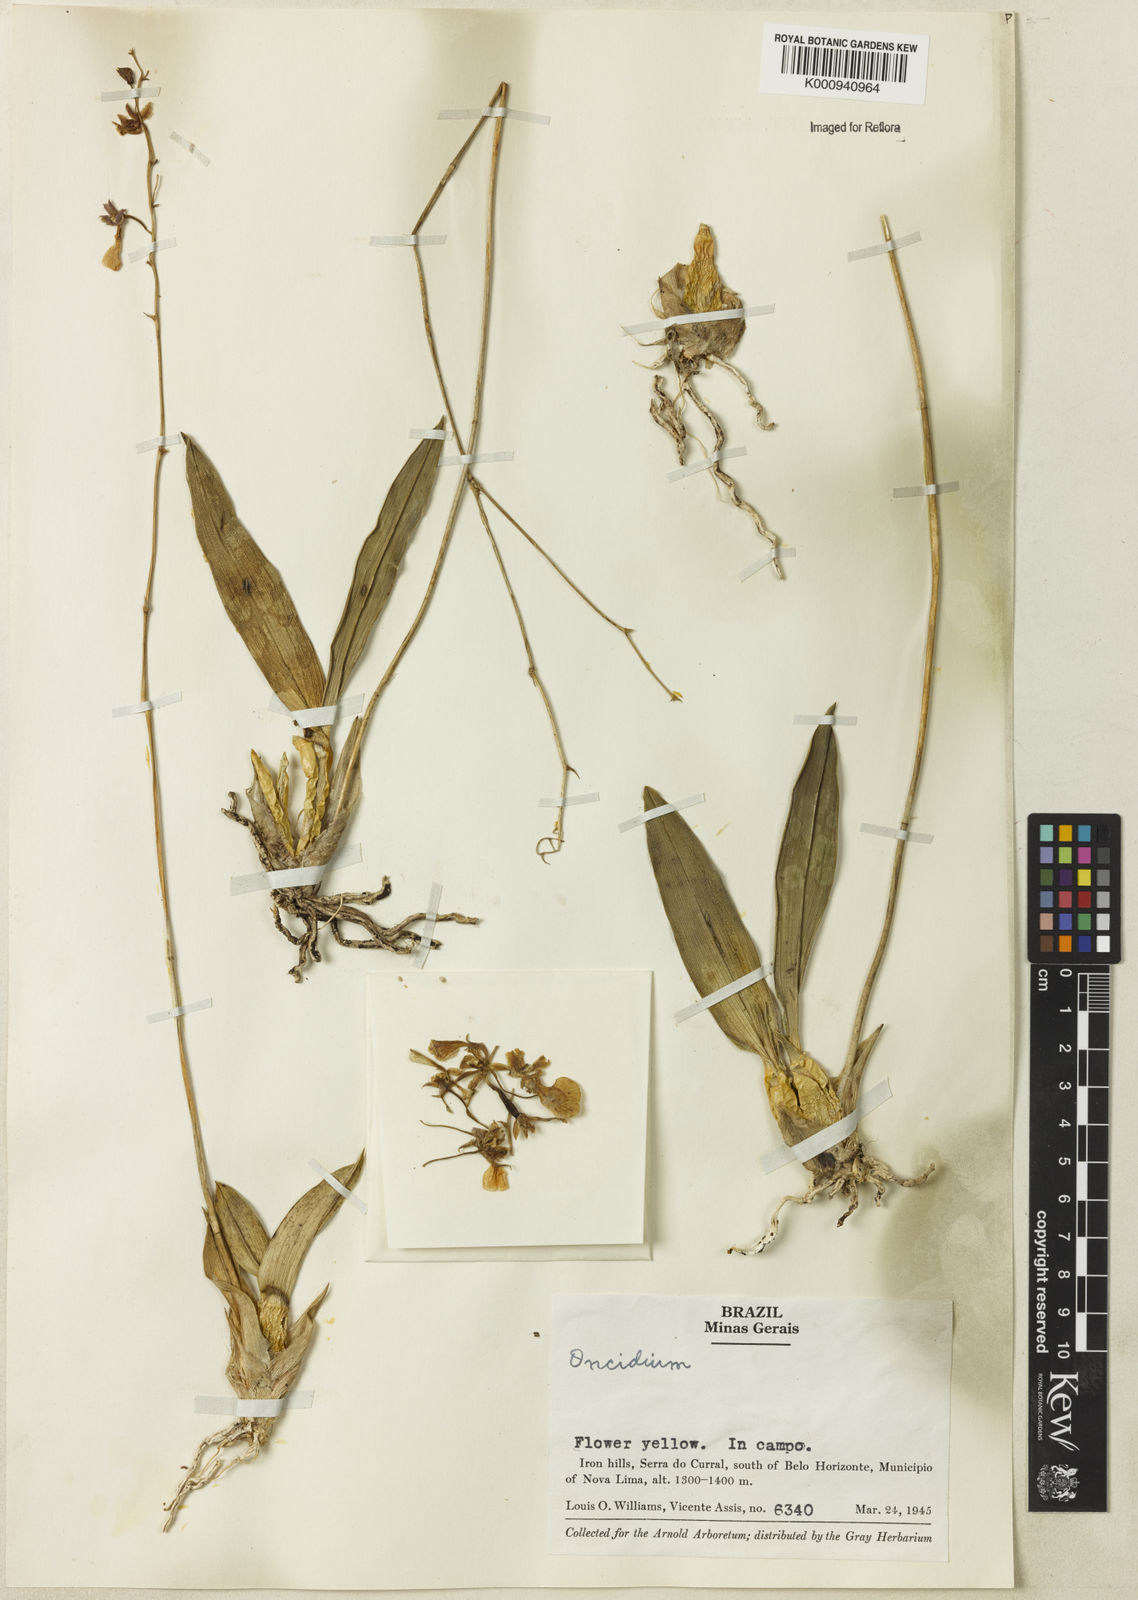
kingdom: Plantae
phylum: Tracheophyta
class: Liliopsida
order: Asparagales
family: Orchidaceae
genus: Oncidium
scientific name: Oncidium
